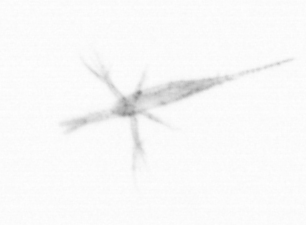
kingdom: Animalia
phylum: Arthropoda
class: Copepoda
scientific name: Copepoda
